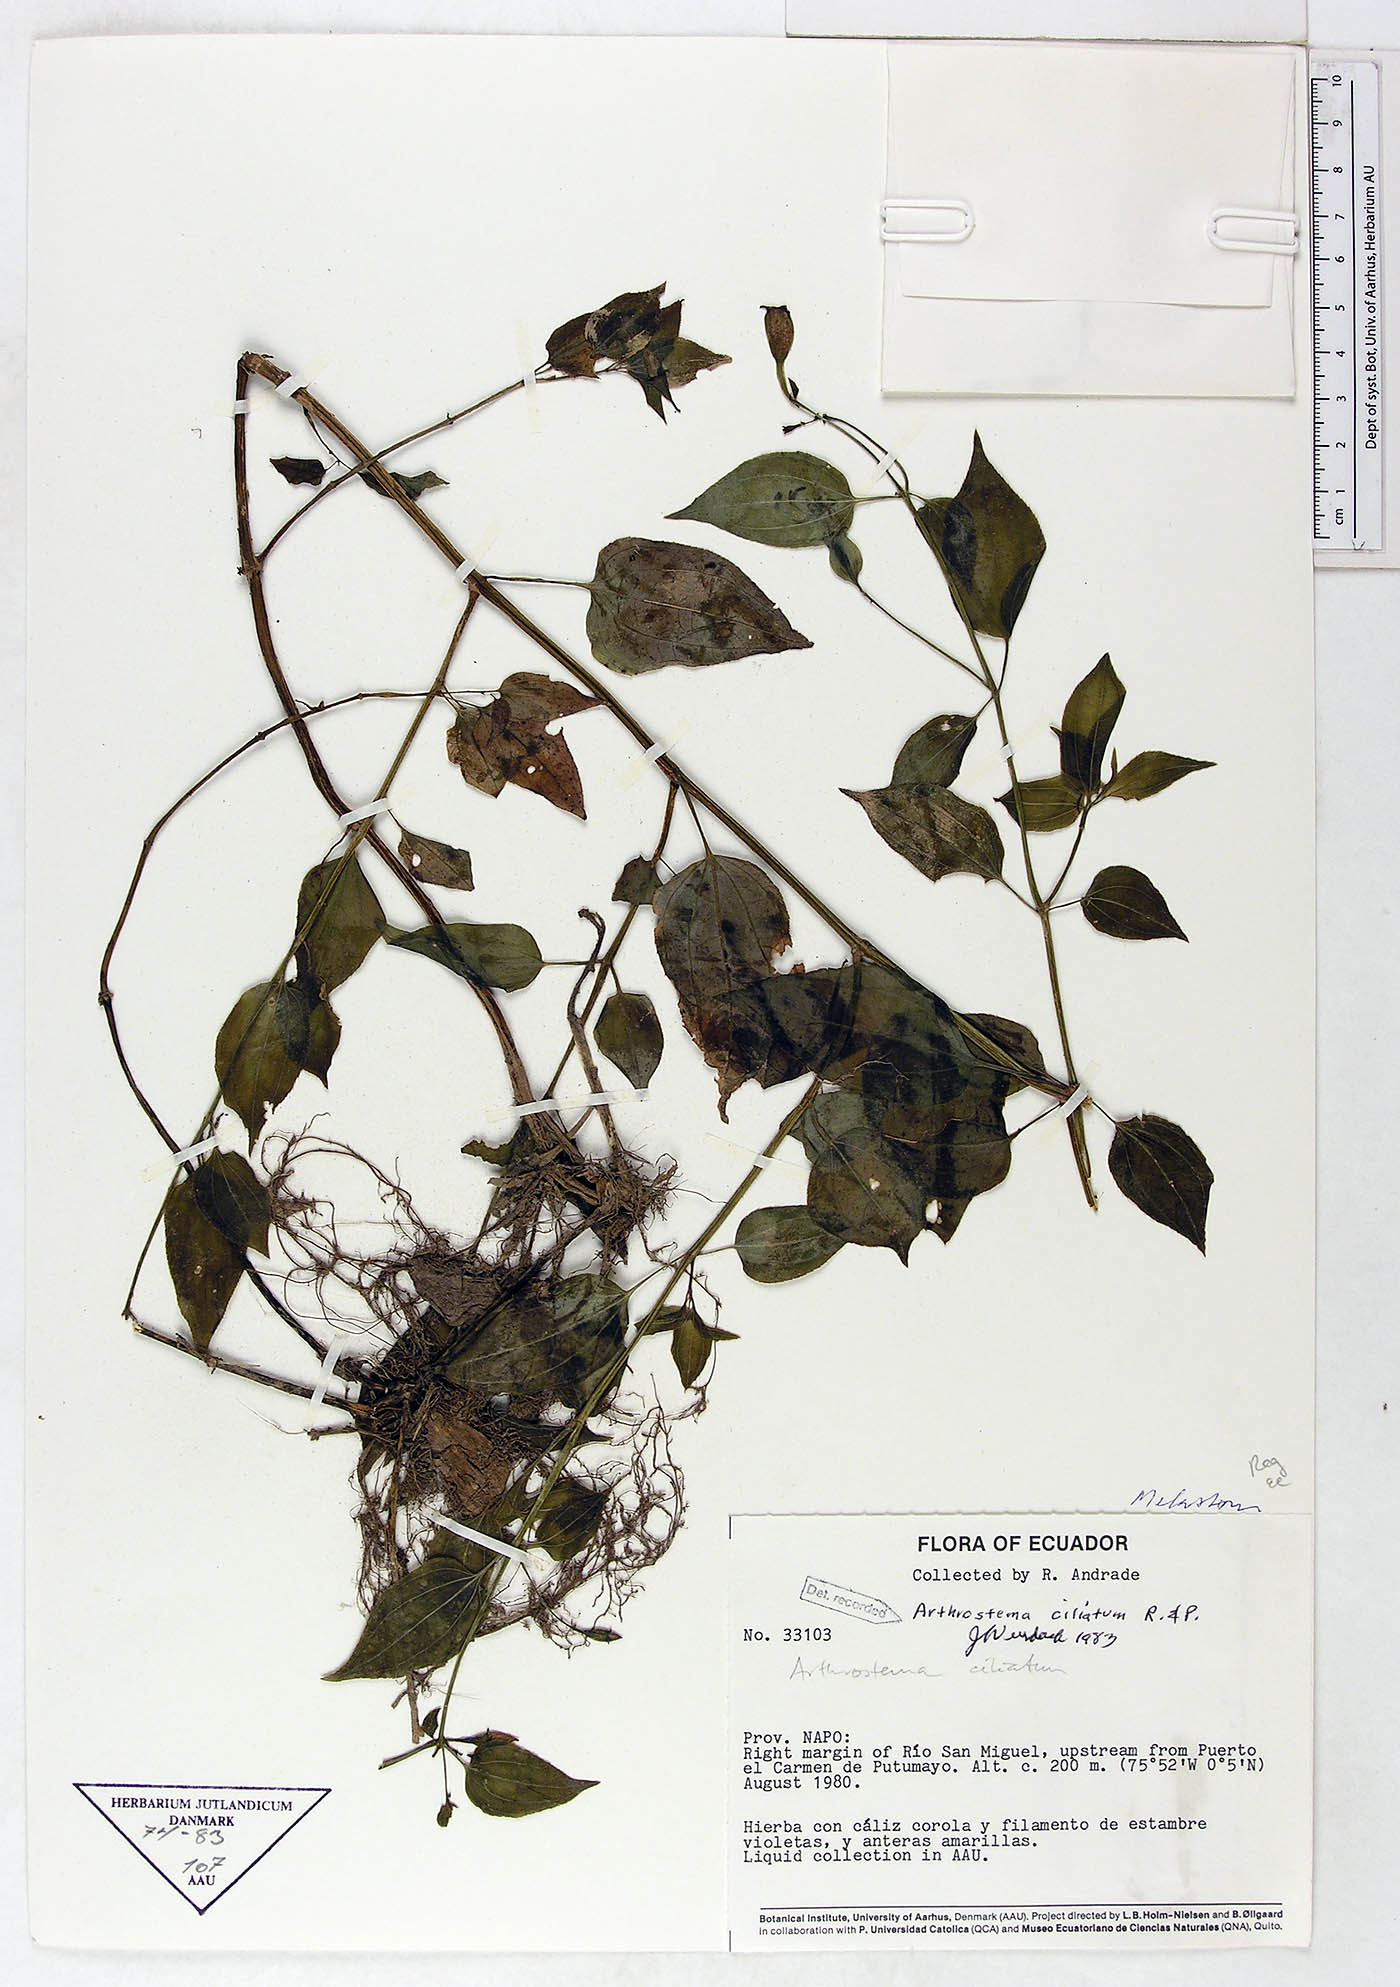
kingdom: Plantae
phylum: Tracheophyta
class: Magnoliopsida
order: Myrtales
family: Melastomataceae
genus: Arthrostemma
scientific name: Arthrostemma ciliatum
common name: Everblooming eavender
